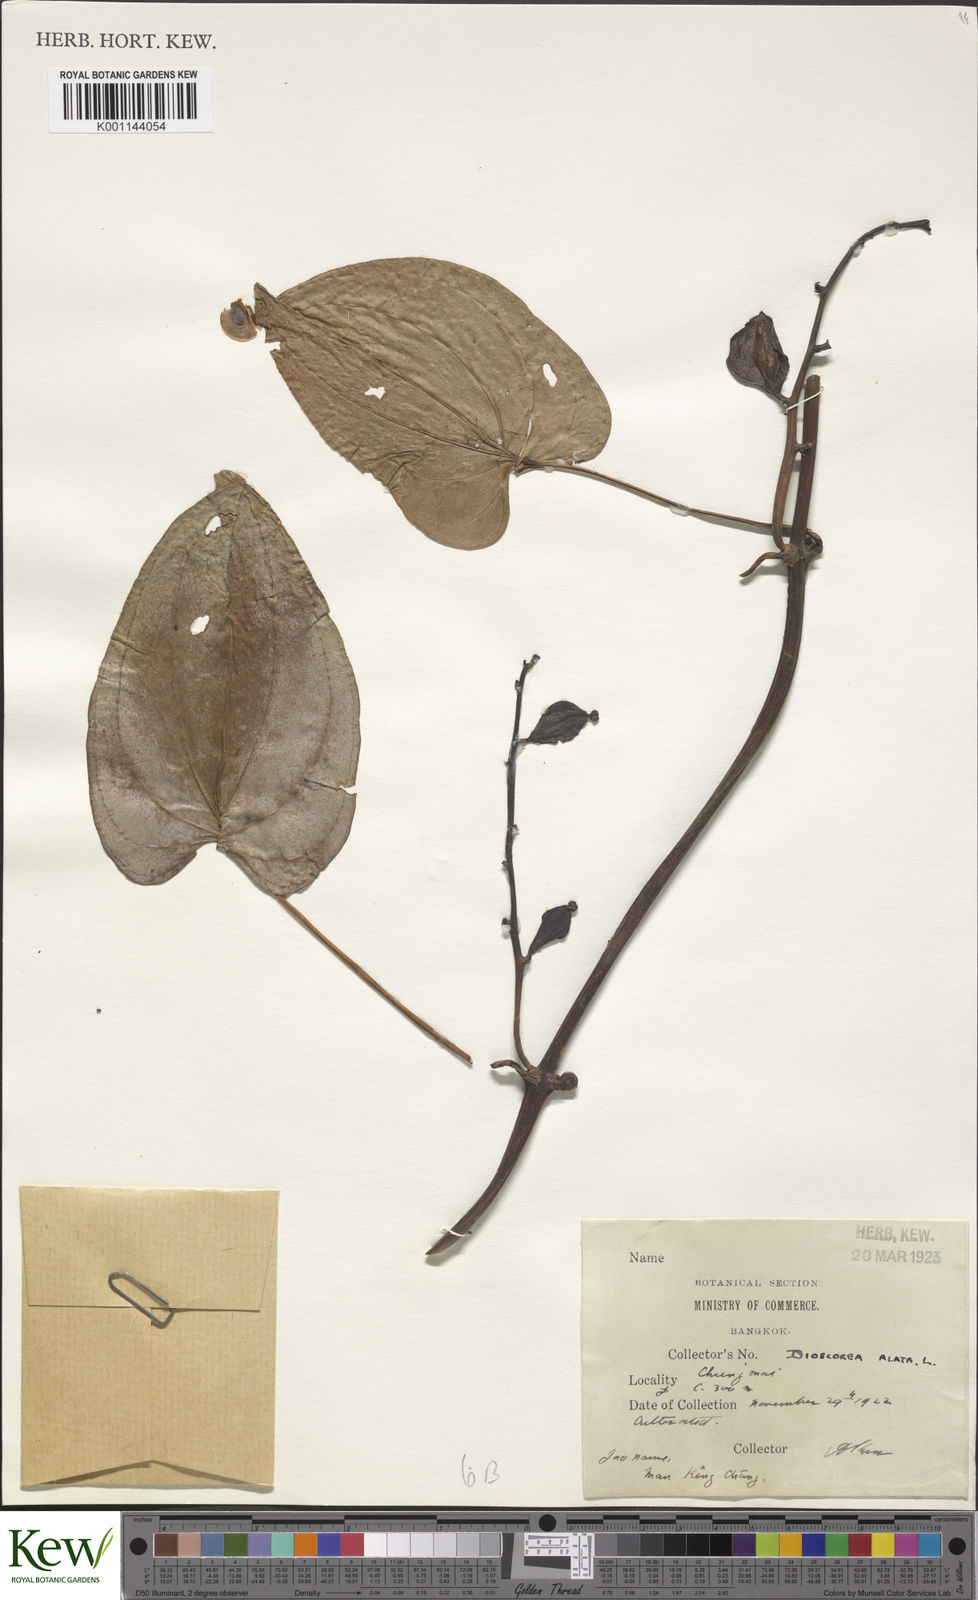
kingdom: Plantae
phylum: Tracheophyta
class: Liliopsida
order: Dioscoreales
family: Dioscoreaceae
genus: Dioscorea
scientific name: Dioscorea alata
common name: Water yam
